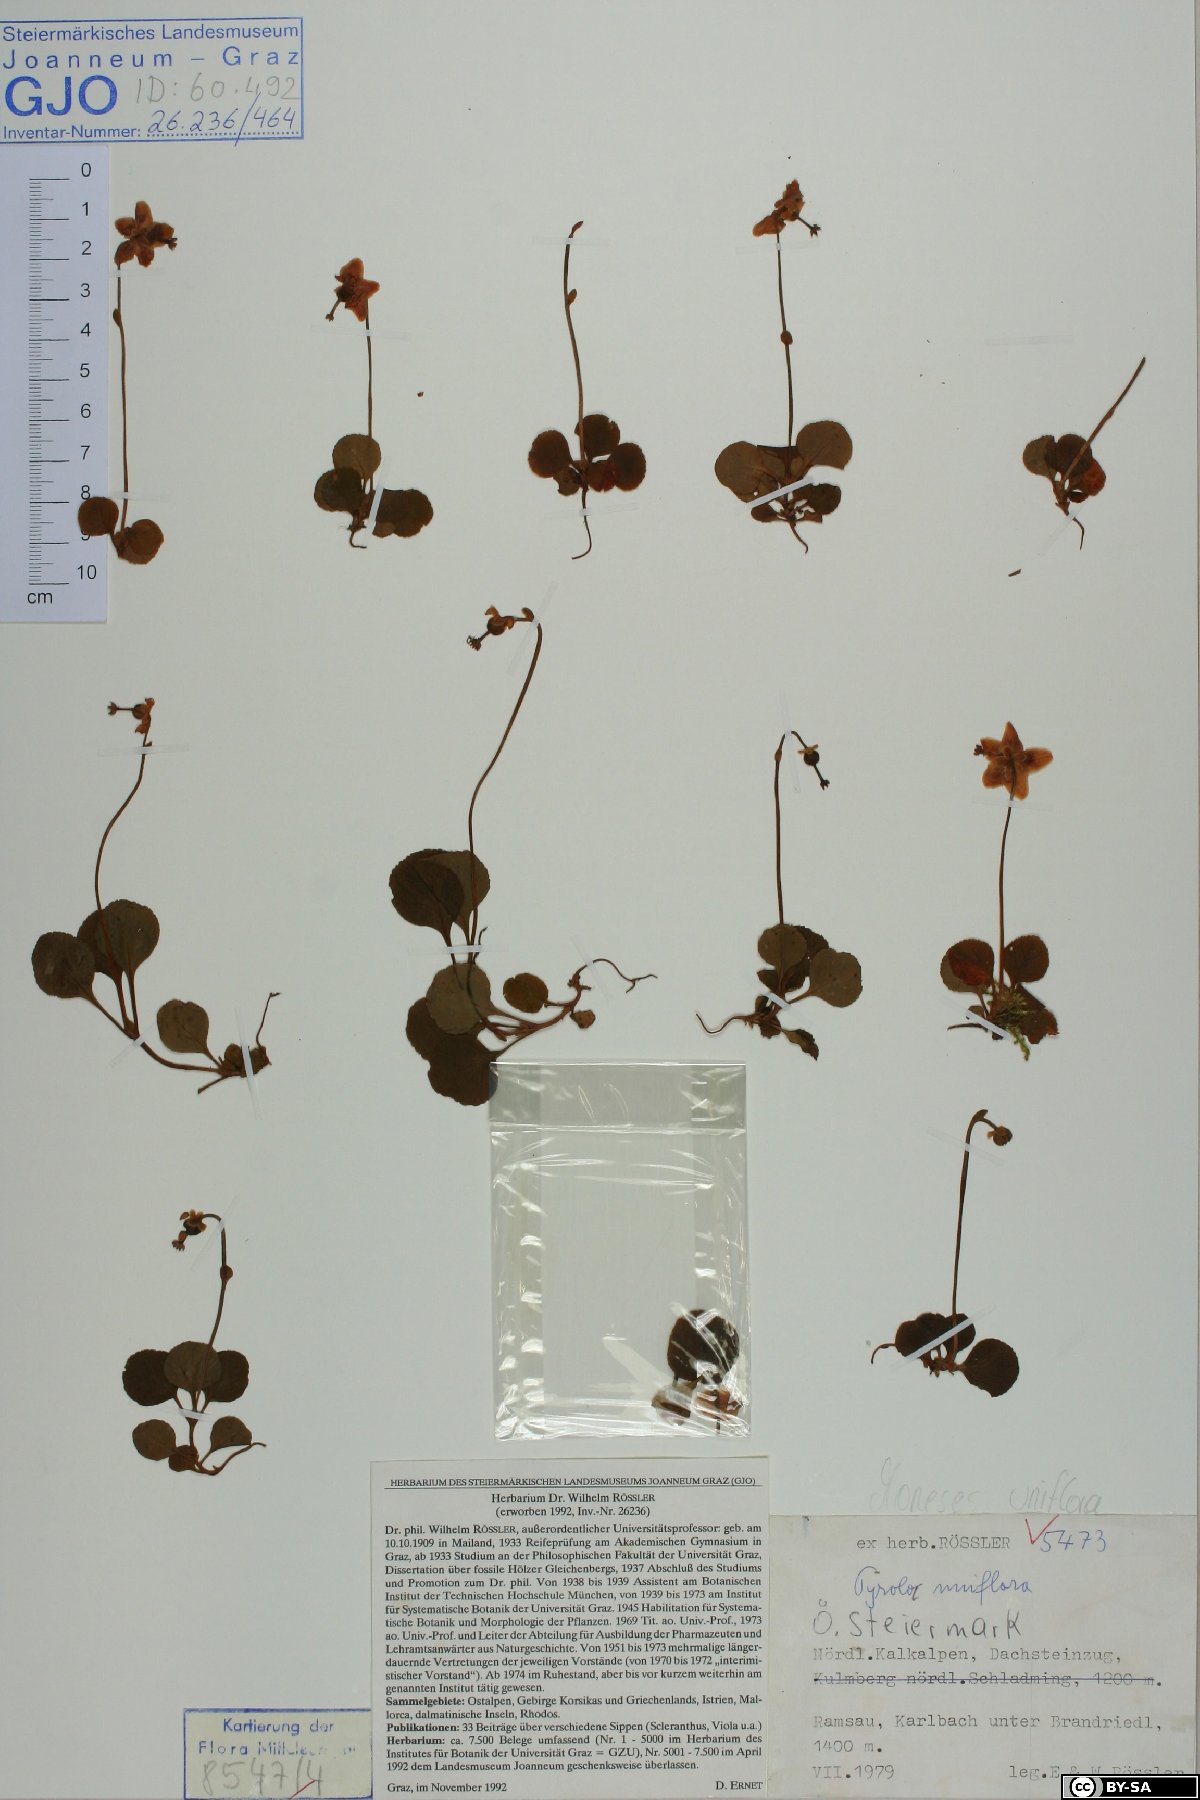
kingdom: Plantae
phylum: Tracheophyta
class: Magnoliopsida
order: Ericales
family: Ericaceae
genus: Moneses
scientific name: Moneses uniflora
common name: One-flowered wintergreen
